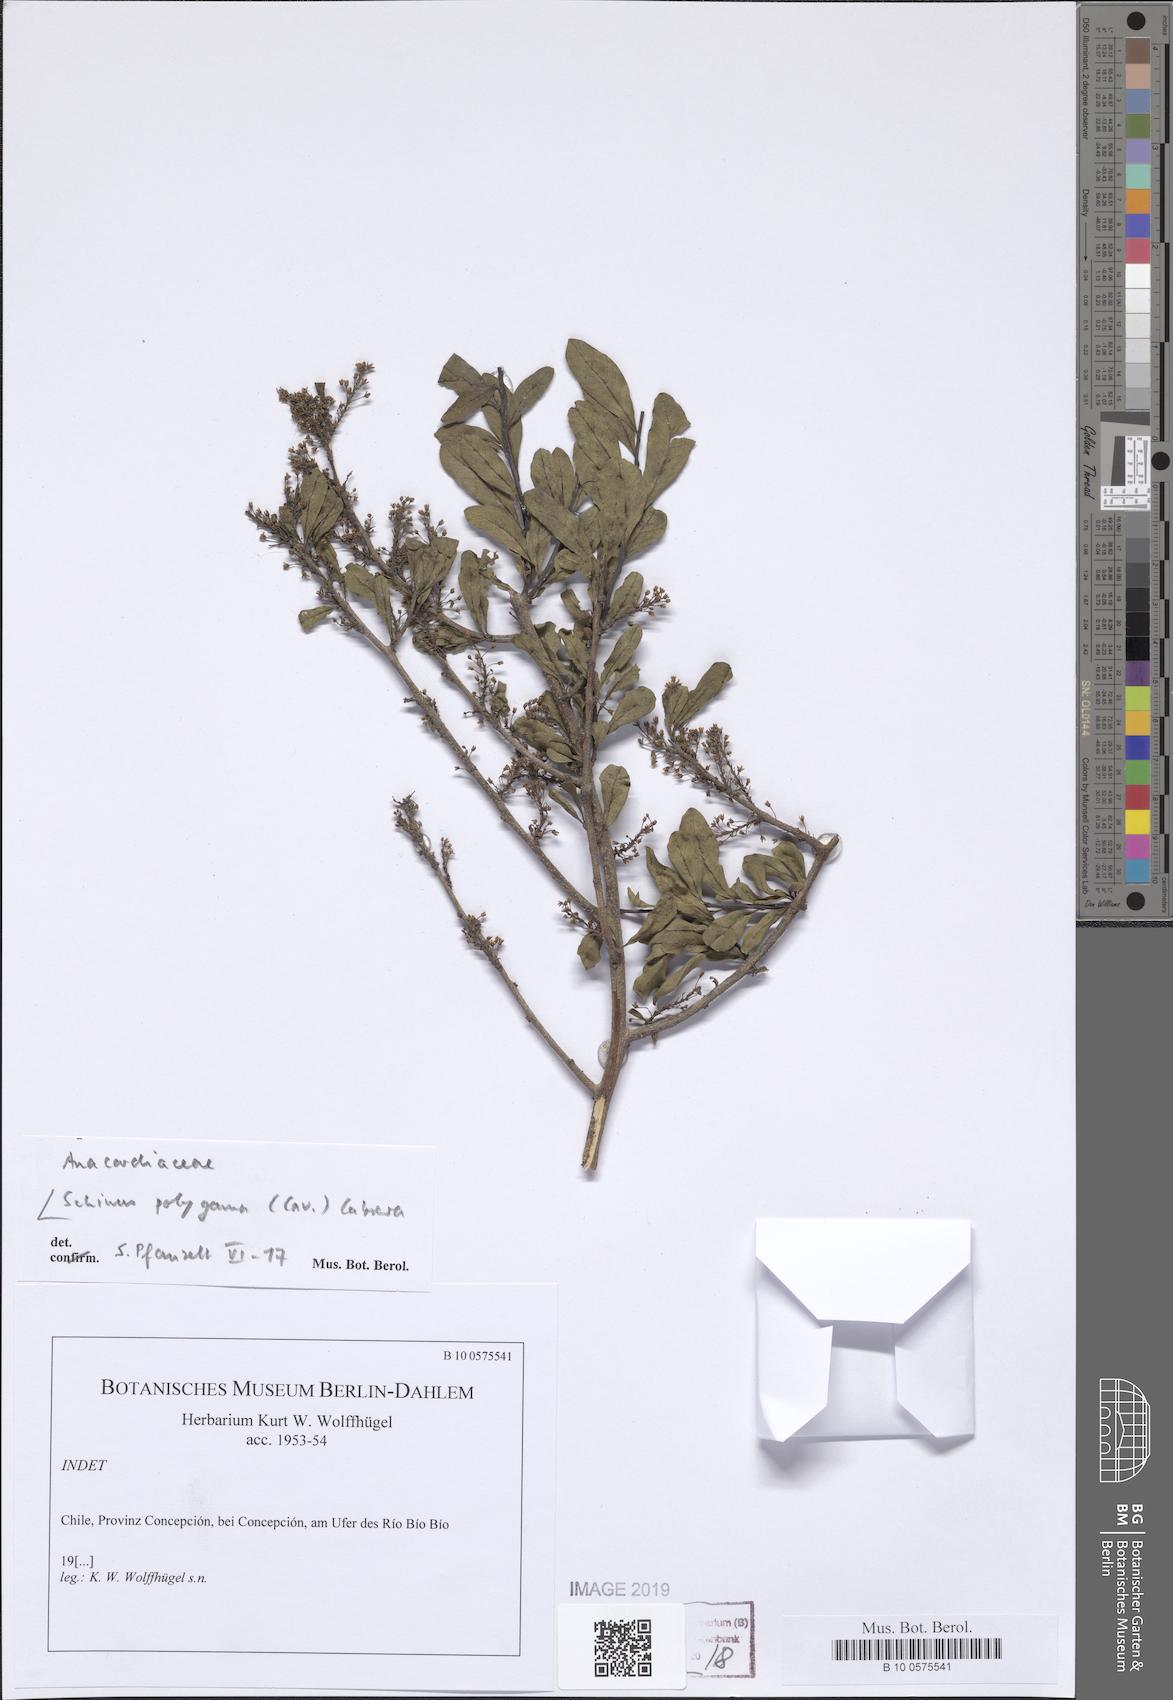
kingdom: Plantae
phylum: Tracheophyta
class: Magnoliopsida
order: Sapindales
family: Anacardiaceae
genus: Schinus
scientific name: Schinus polygama
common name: Hardee peppertree
